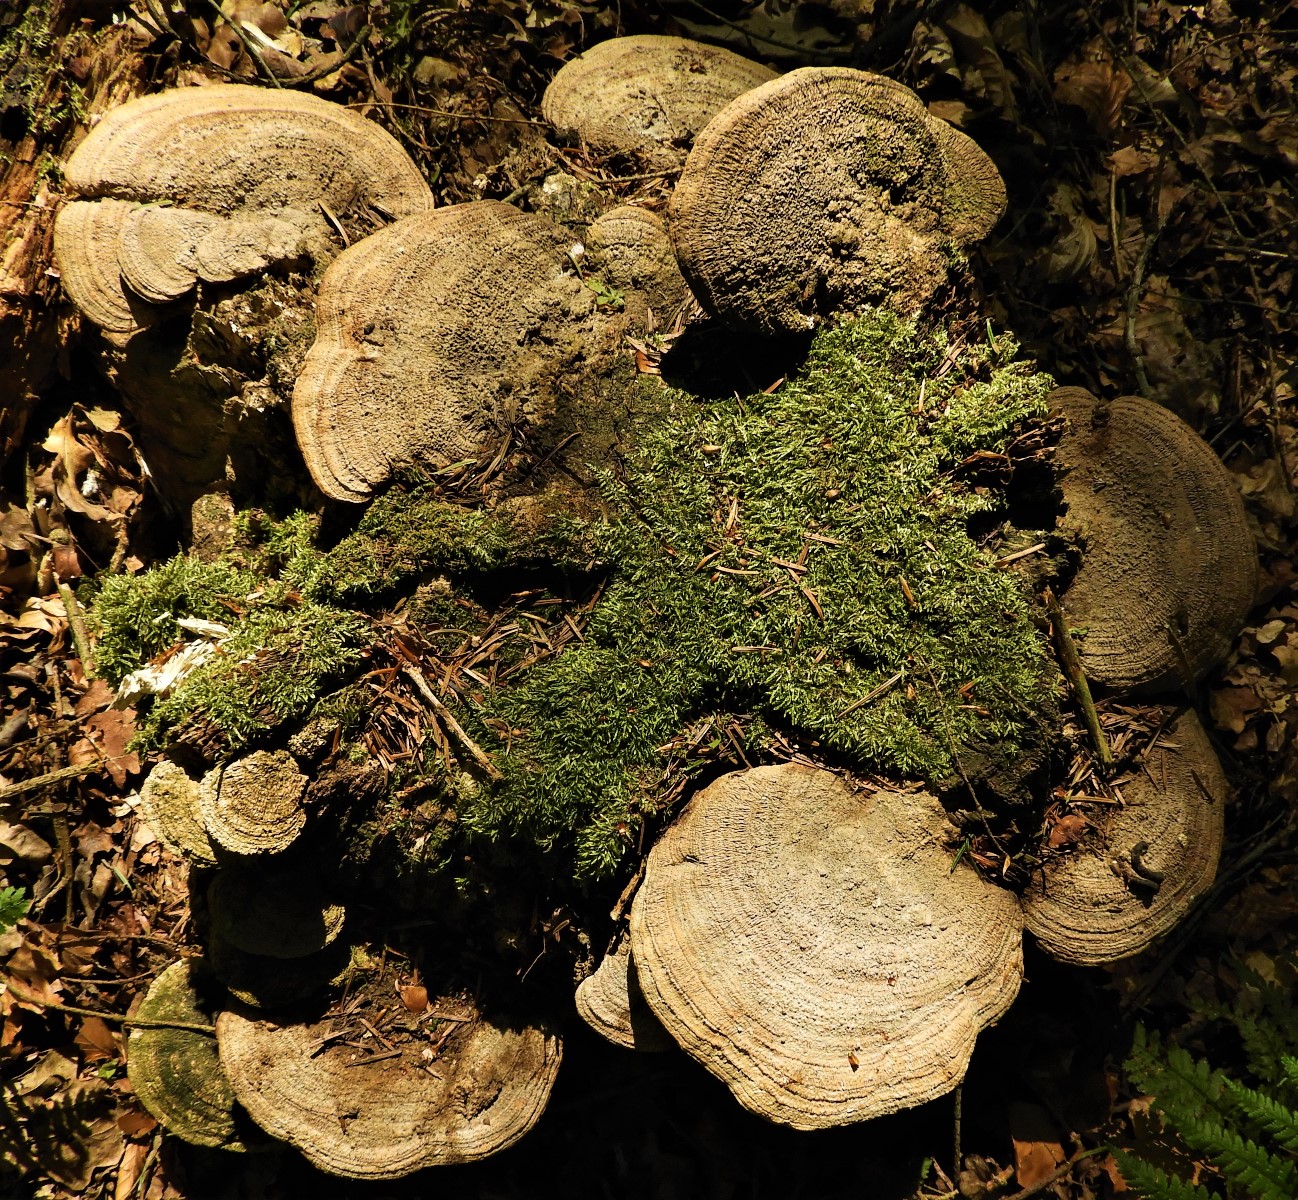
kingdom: Fungi
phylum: Basidiomycota
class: Agaricomycetes
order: Polyporales
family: Fomitopsidaceae
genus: Daedalea
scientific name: Daedalea quercina
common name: ege-labyrintsvamp
